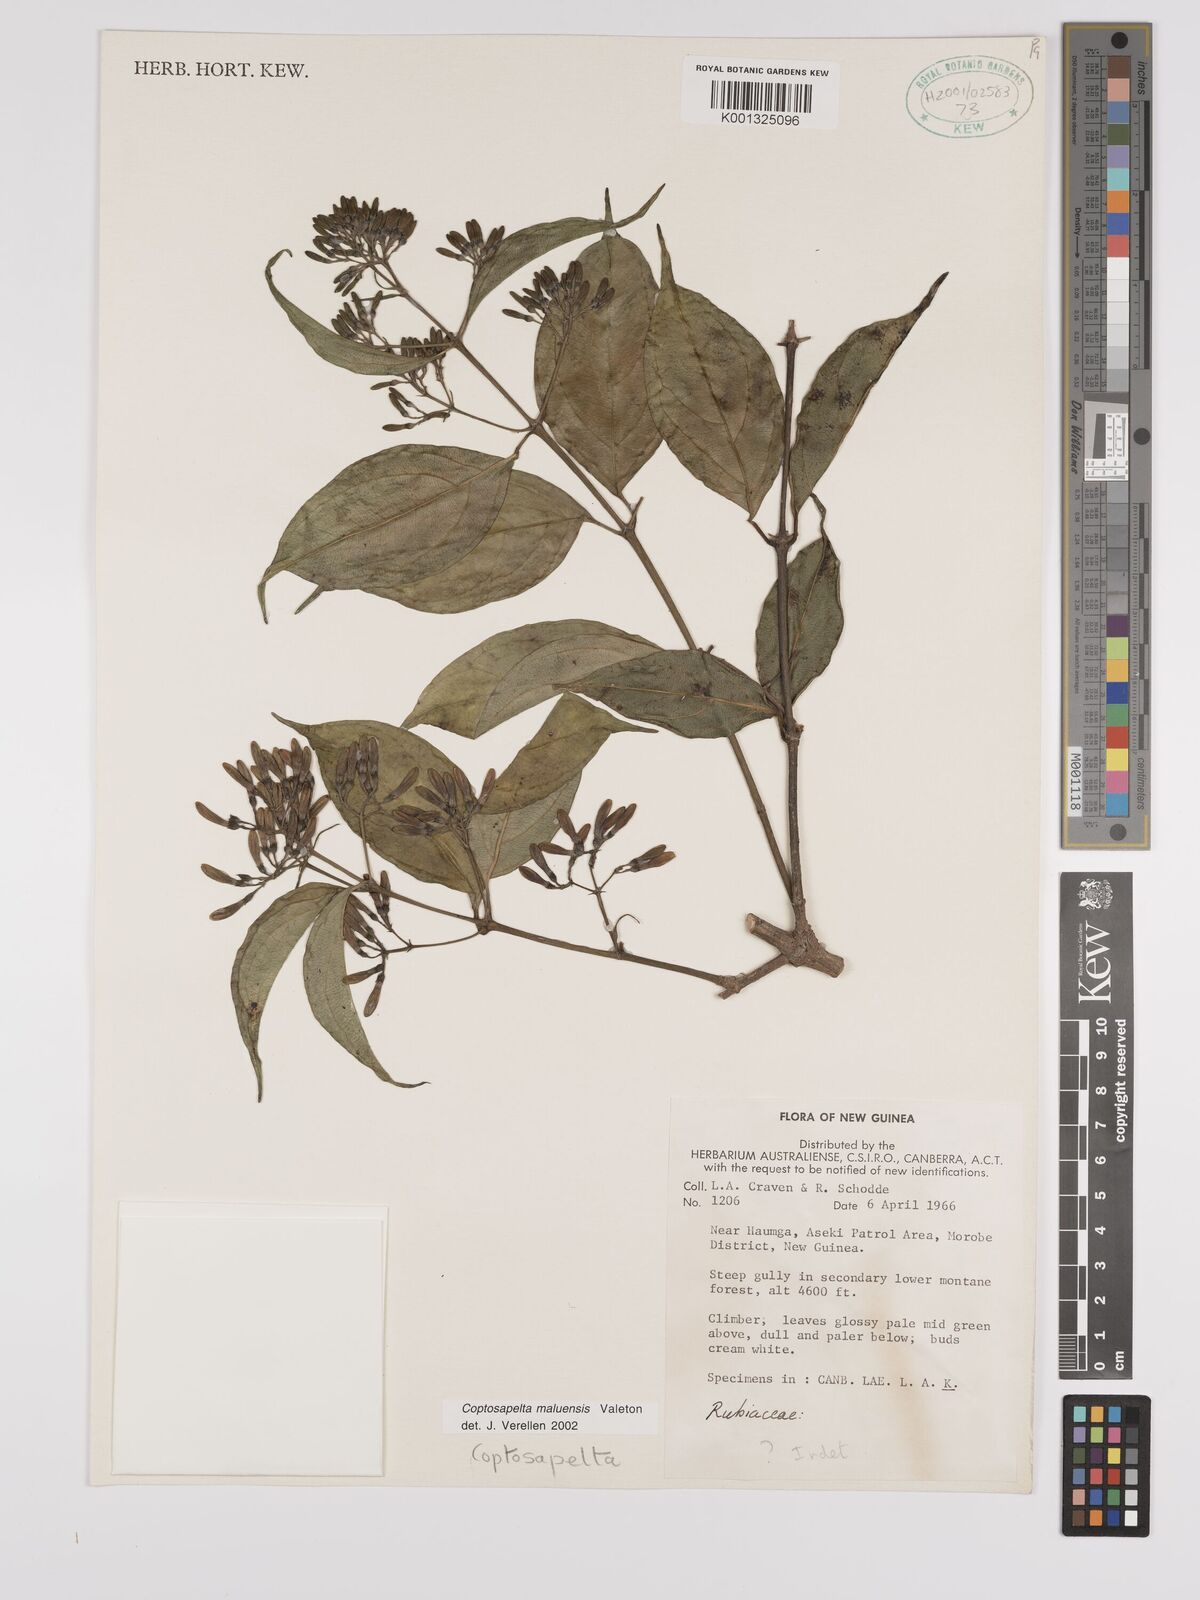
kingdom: Plantae
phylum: Tracheophyta
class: Magnoliopsida
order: Gentianales
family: Rubiaceae
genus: Coptosapelta
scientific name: Coptosapelta maluensis
